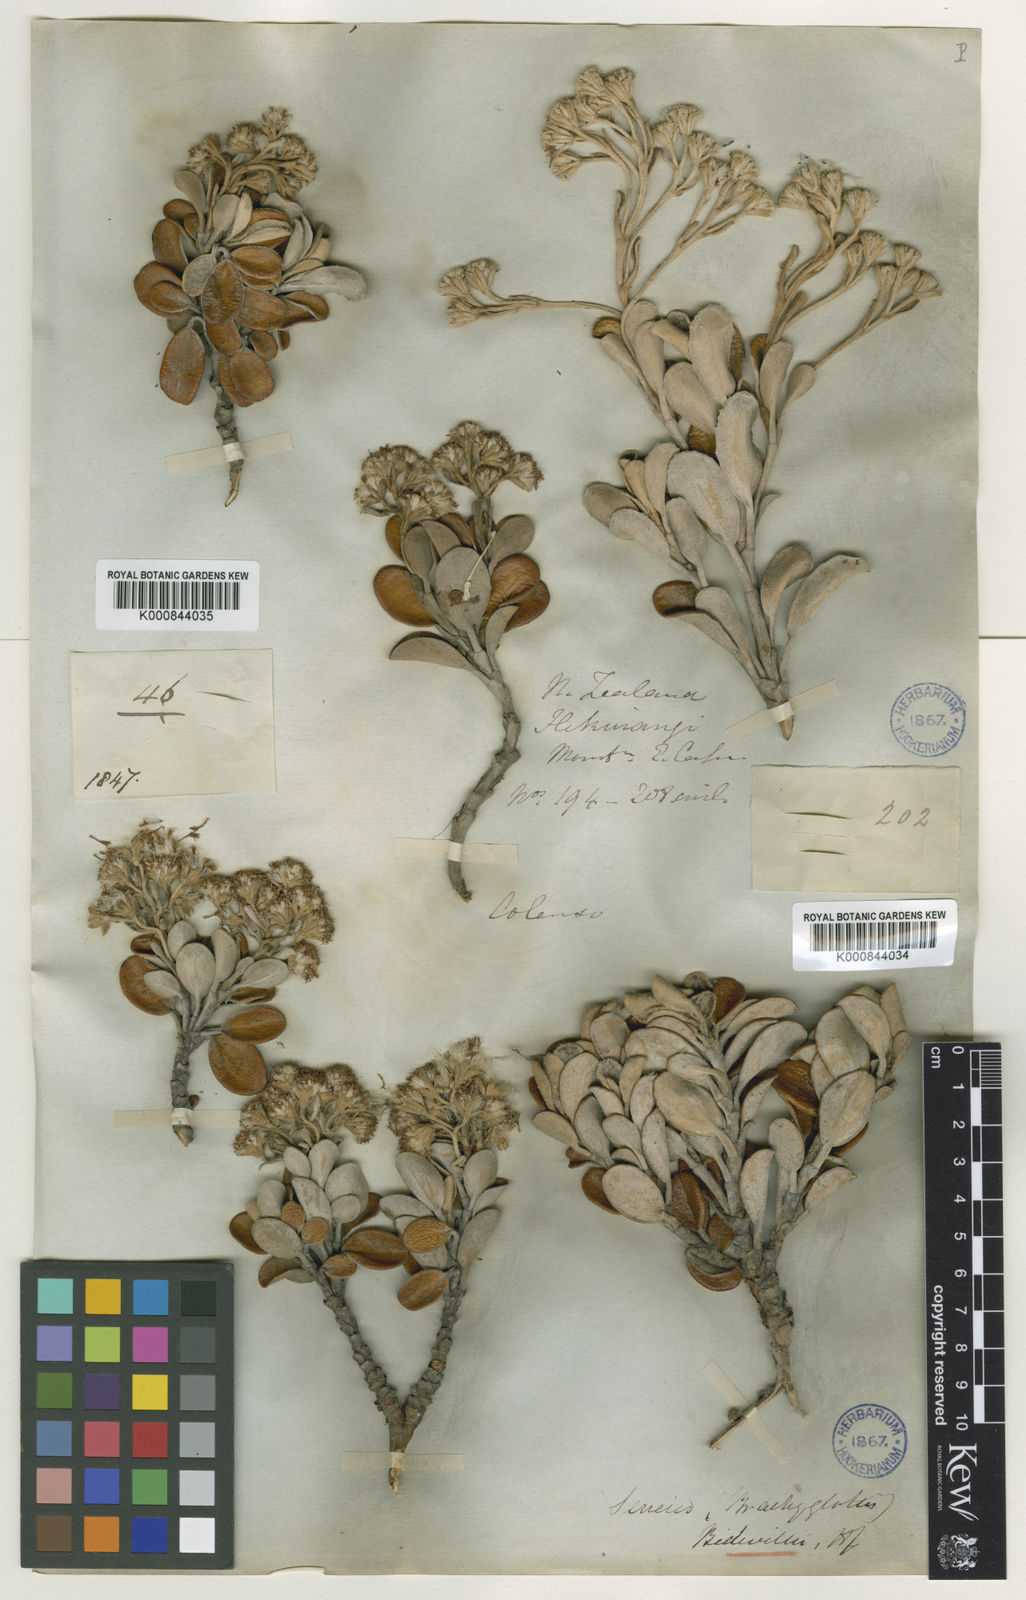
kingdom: Plantae
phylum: Tracheophyta
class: Magnoliopsida
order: Asterales
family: Asteraceae
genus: Brachyglottis
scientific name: Brachyglottis
